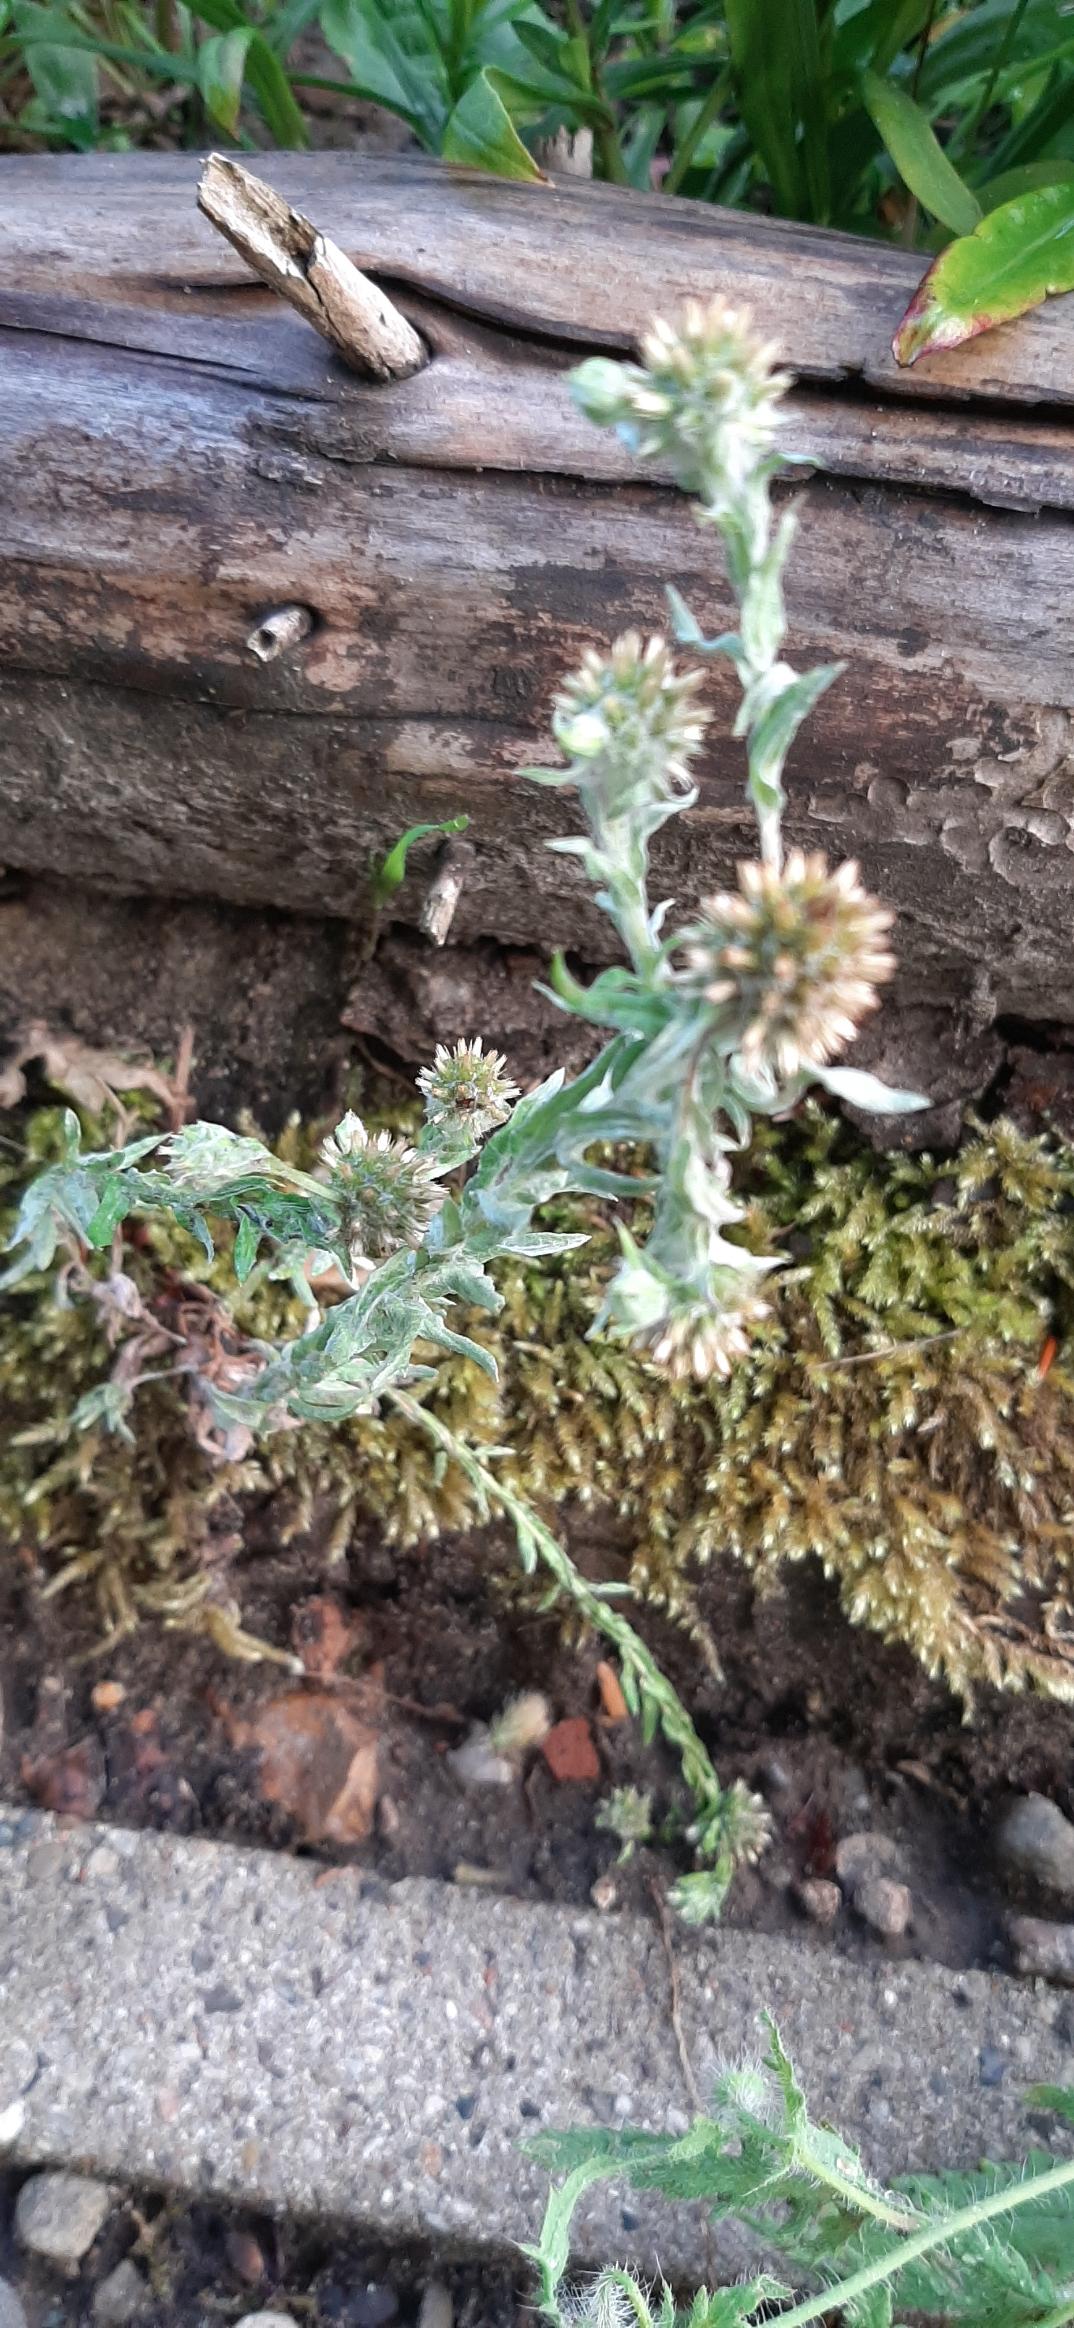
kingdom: Plantae
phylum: Tracheophyta
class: Magnoliopsida
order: Asterales
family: Asteraceae
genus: Filago
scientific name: Filago germanica
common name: Kugle-museurt
